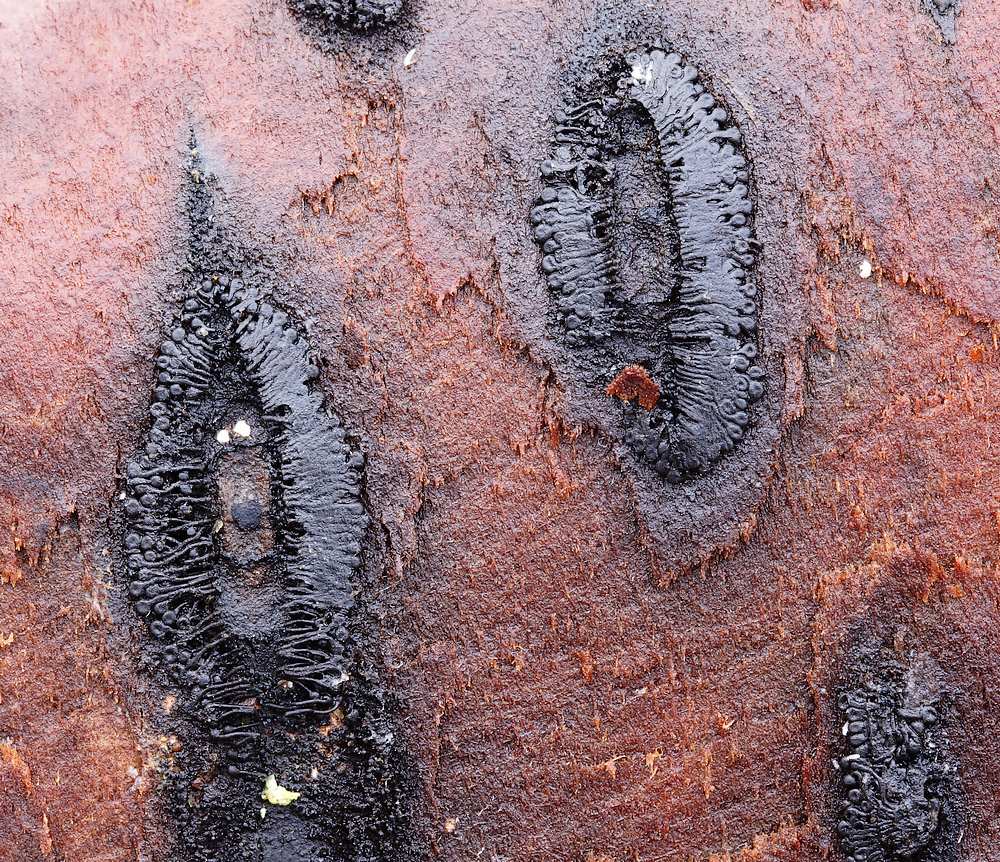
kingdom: Fungi
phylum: Ascomycota
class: Sordariomycetes
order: Calosphaeriales
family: Calosphaeriaceae
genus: Calosphaeria
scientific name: Calosphaeria pulchella
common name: smuk slyngkerne
